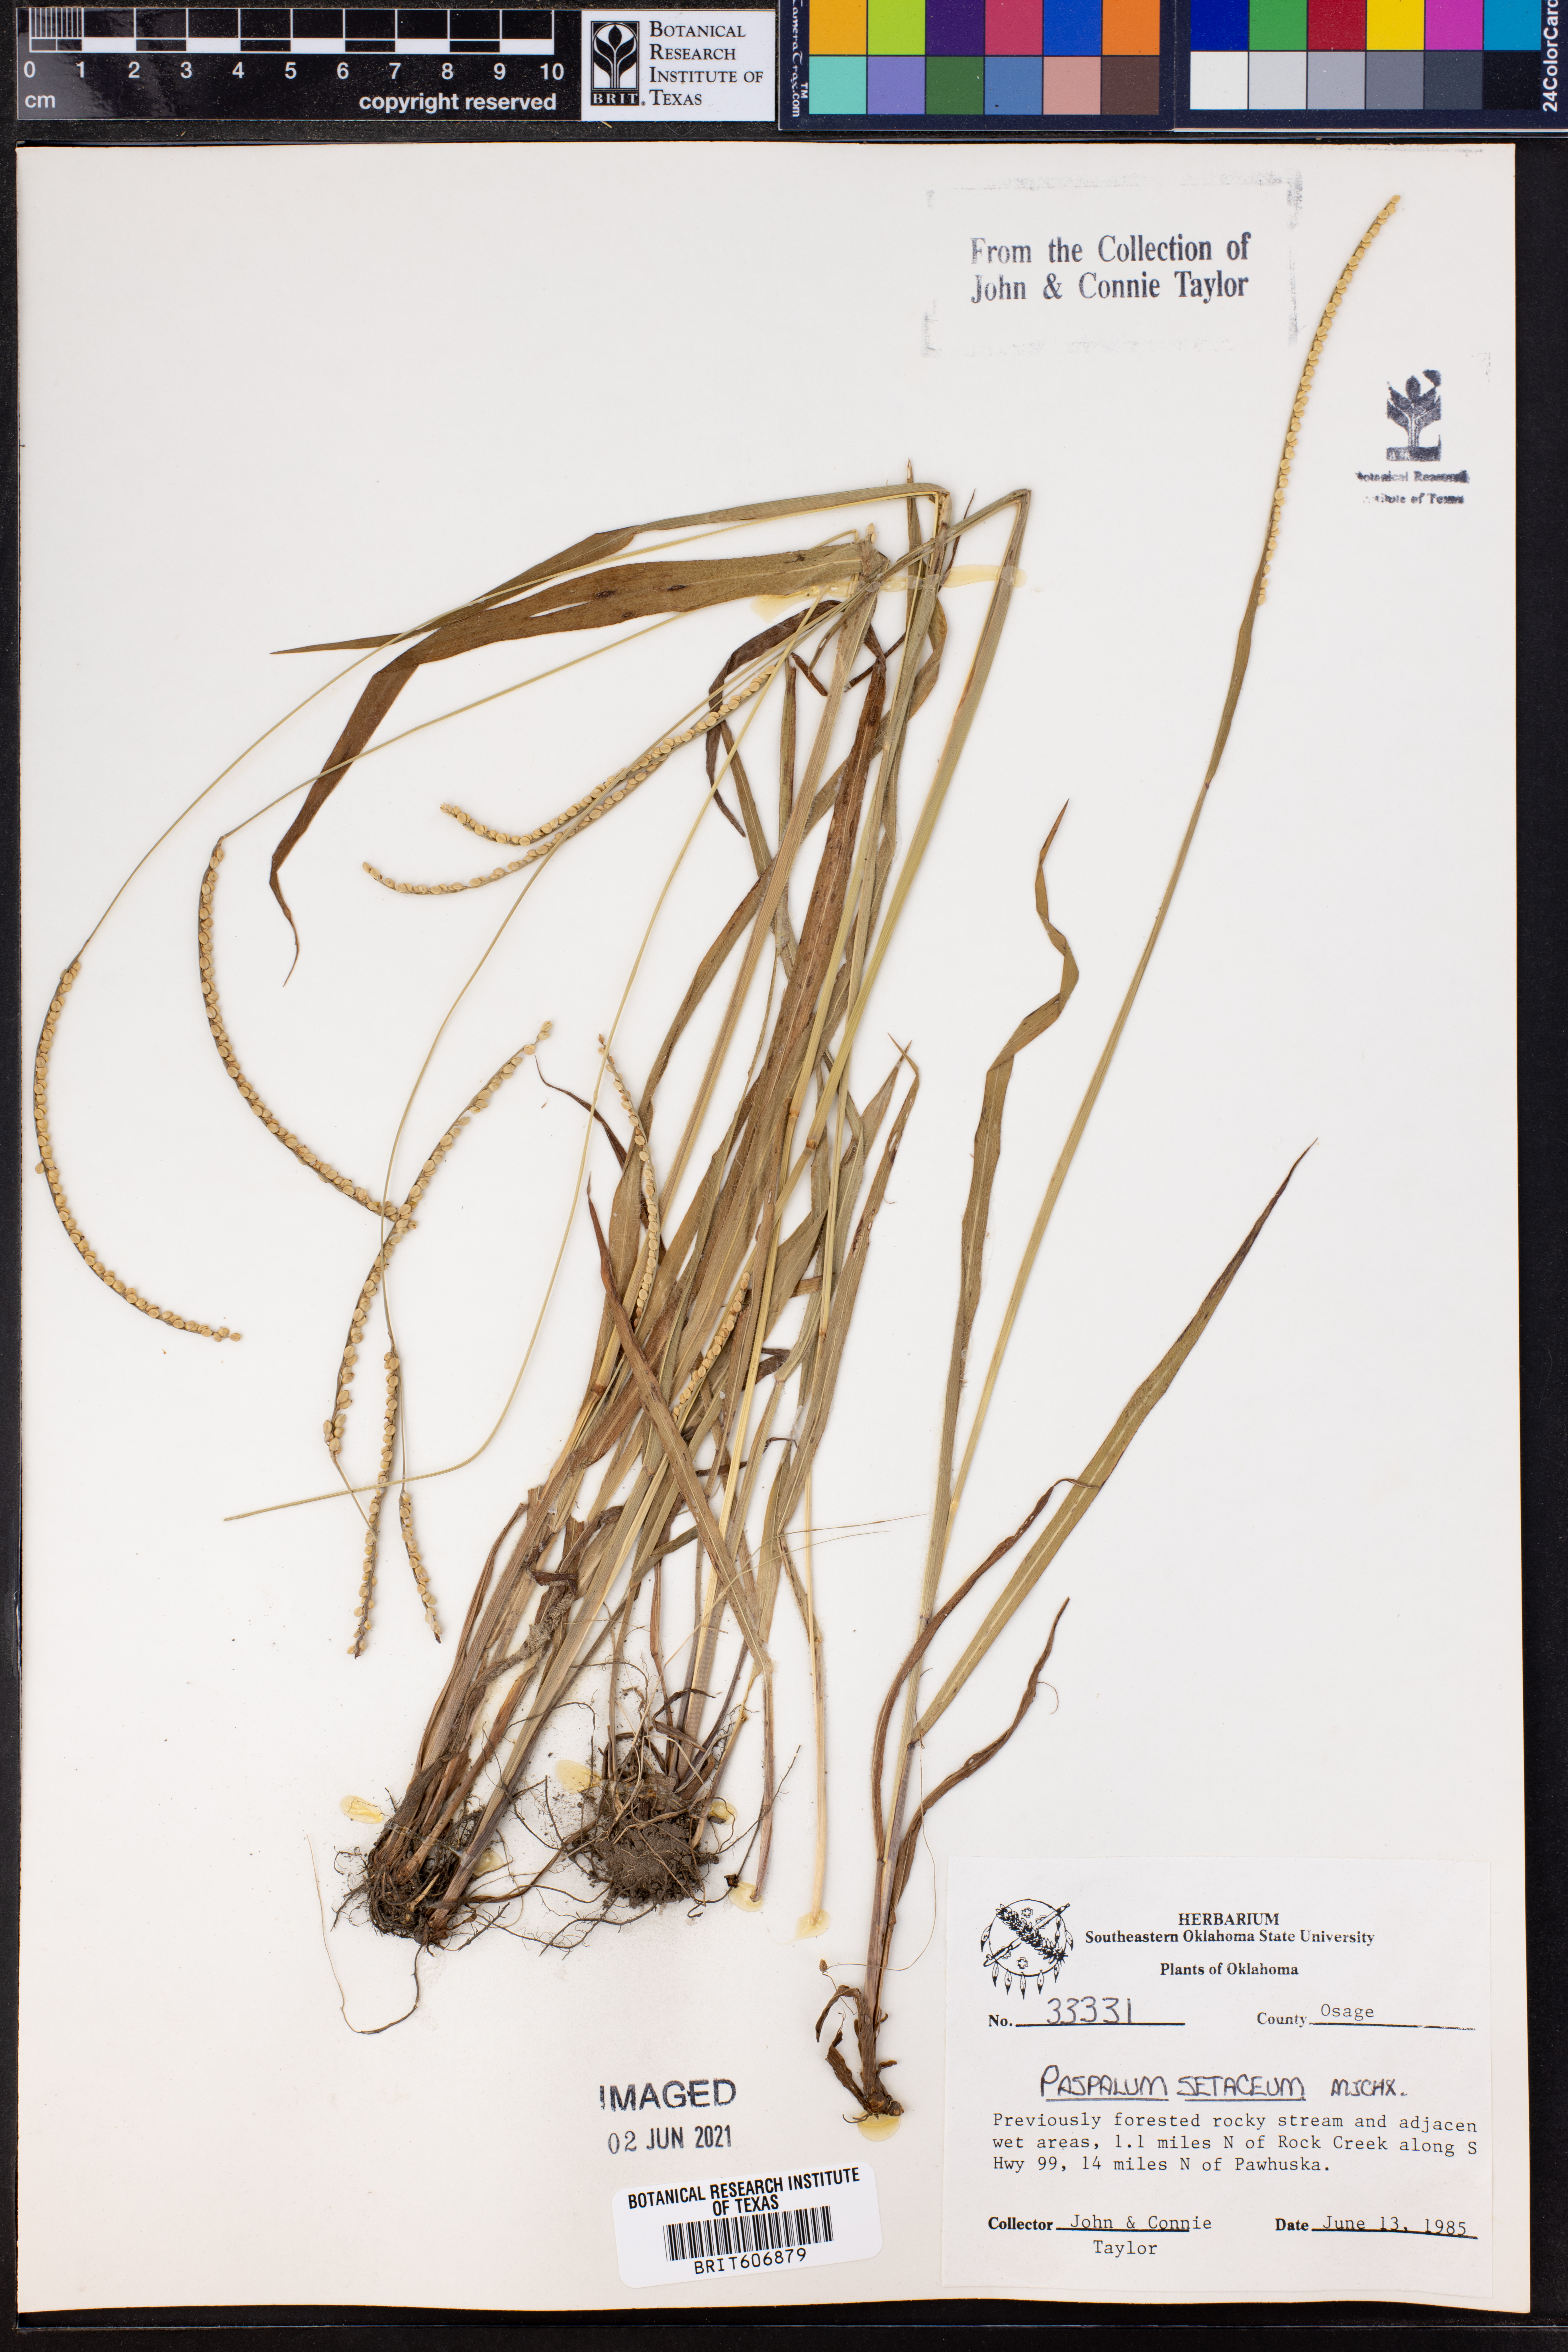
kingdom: Plantae
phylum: Tracheophyta
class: Liliopsida
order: Poales
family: Poaceae
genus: Paspalum
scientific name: Paspalum setaceum
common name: Slender paspalum
